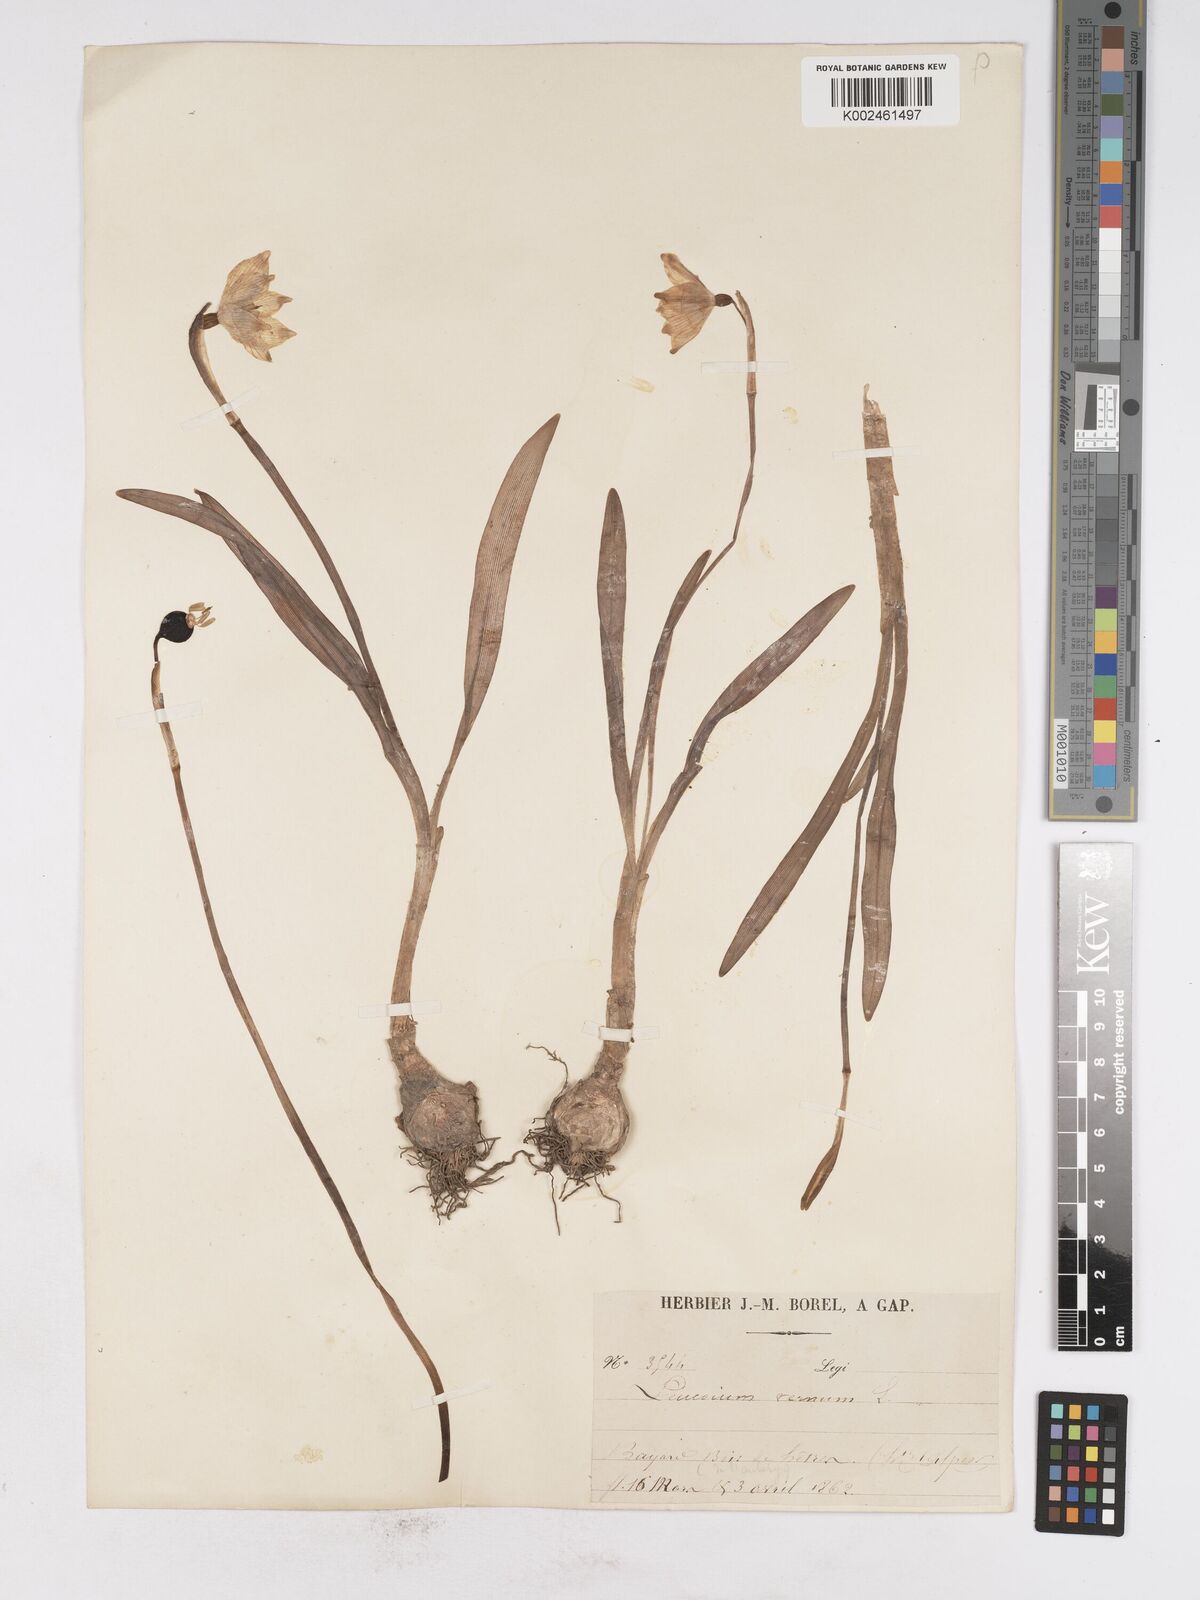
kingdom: Plantae
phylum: Tracheophyta
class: Liliopsida
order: Asparagales
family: Amaryllidaceae
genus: Leucojum
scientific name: Leucojum vernum
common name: Spring snowflake
